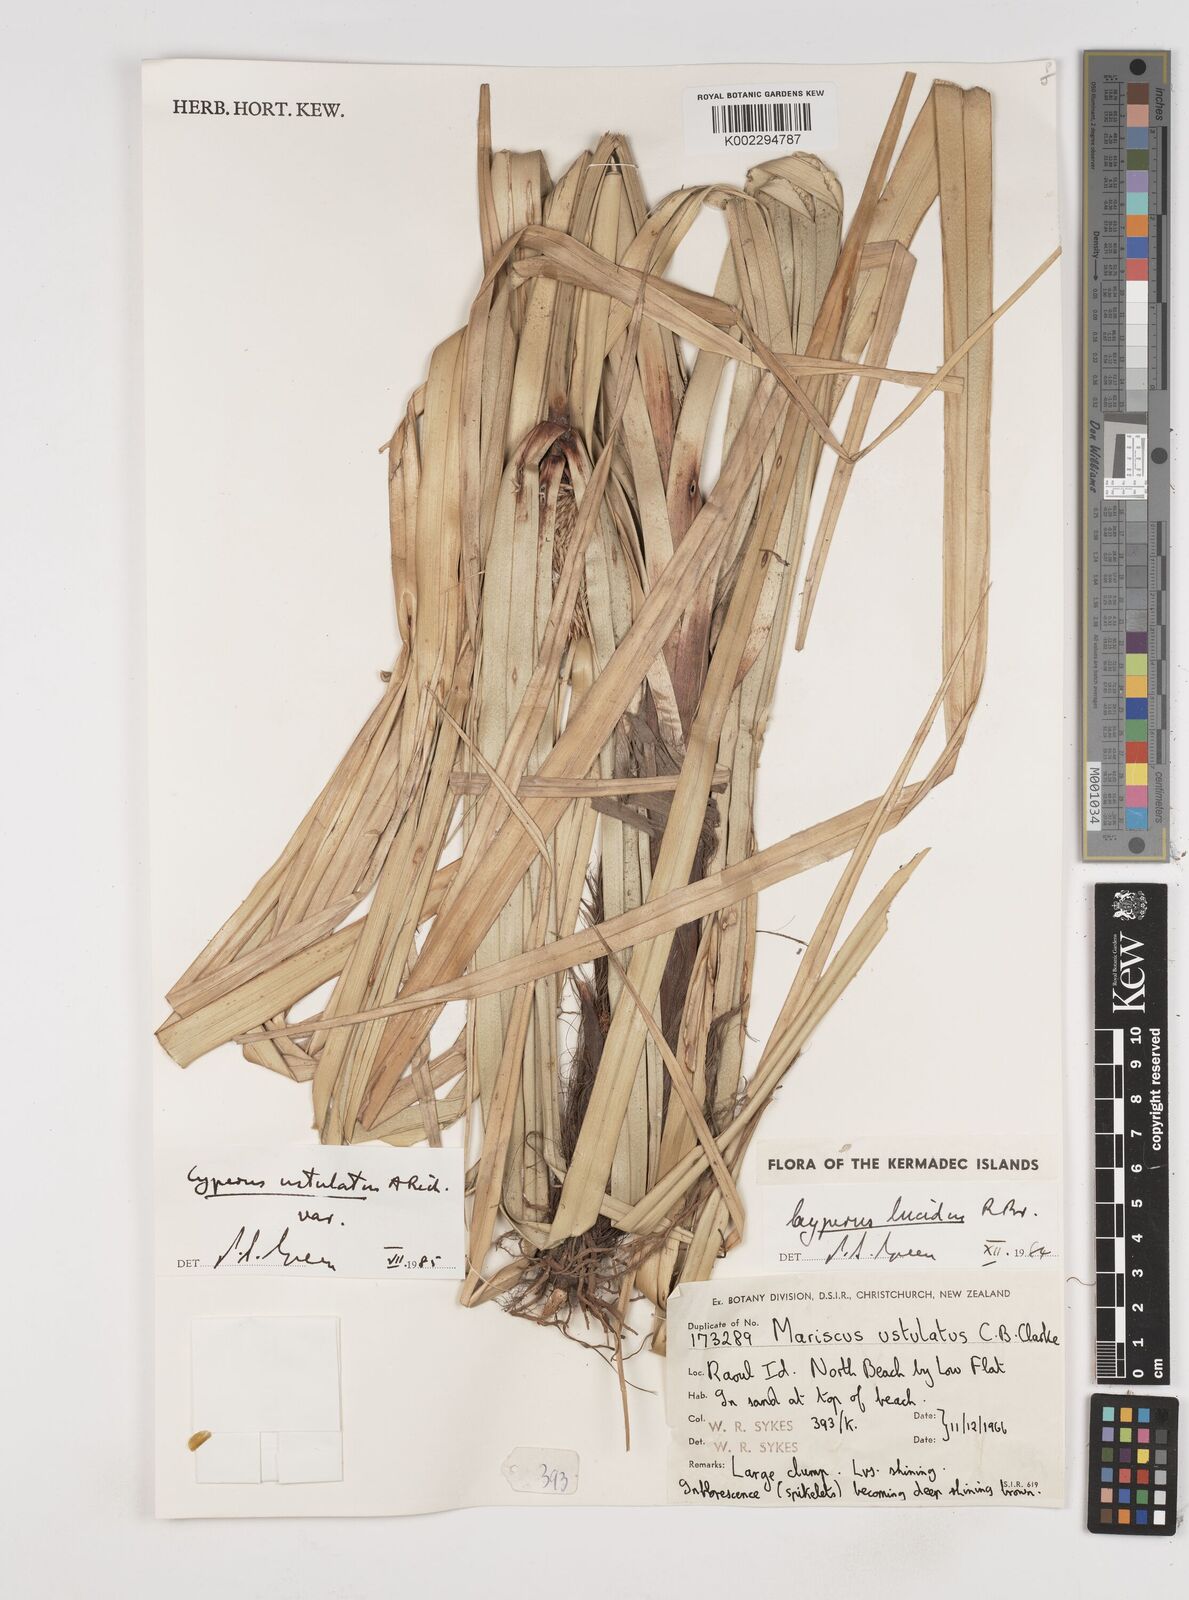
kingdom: Plantae
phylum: Tracheophyta
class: Liliopsida
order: Poales
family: Cyperaceae
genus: Cyperus
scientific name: Cyperus ustulatus
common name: Giant umbrella-sedge
